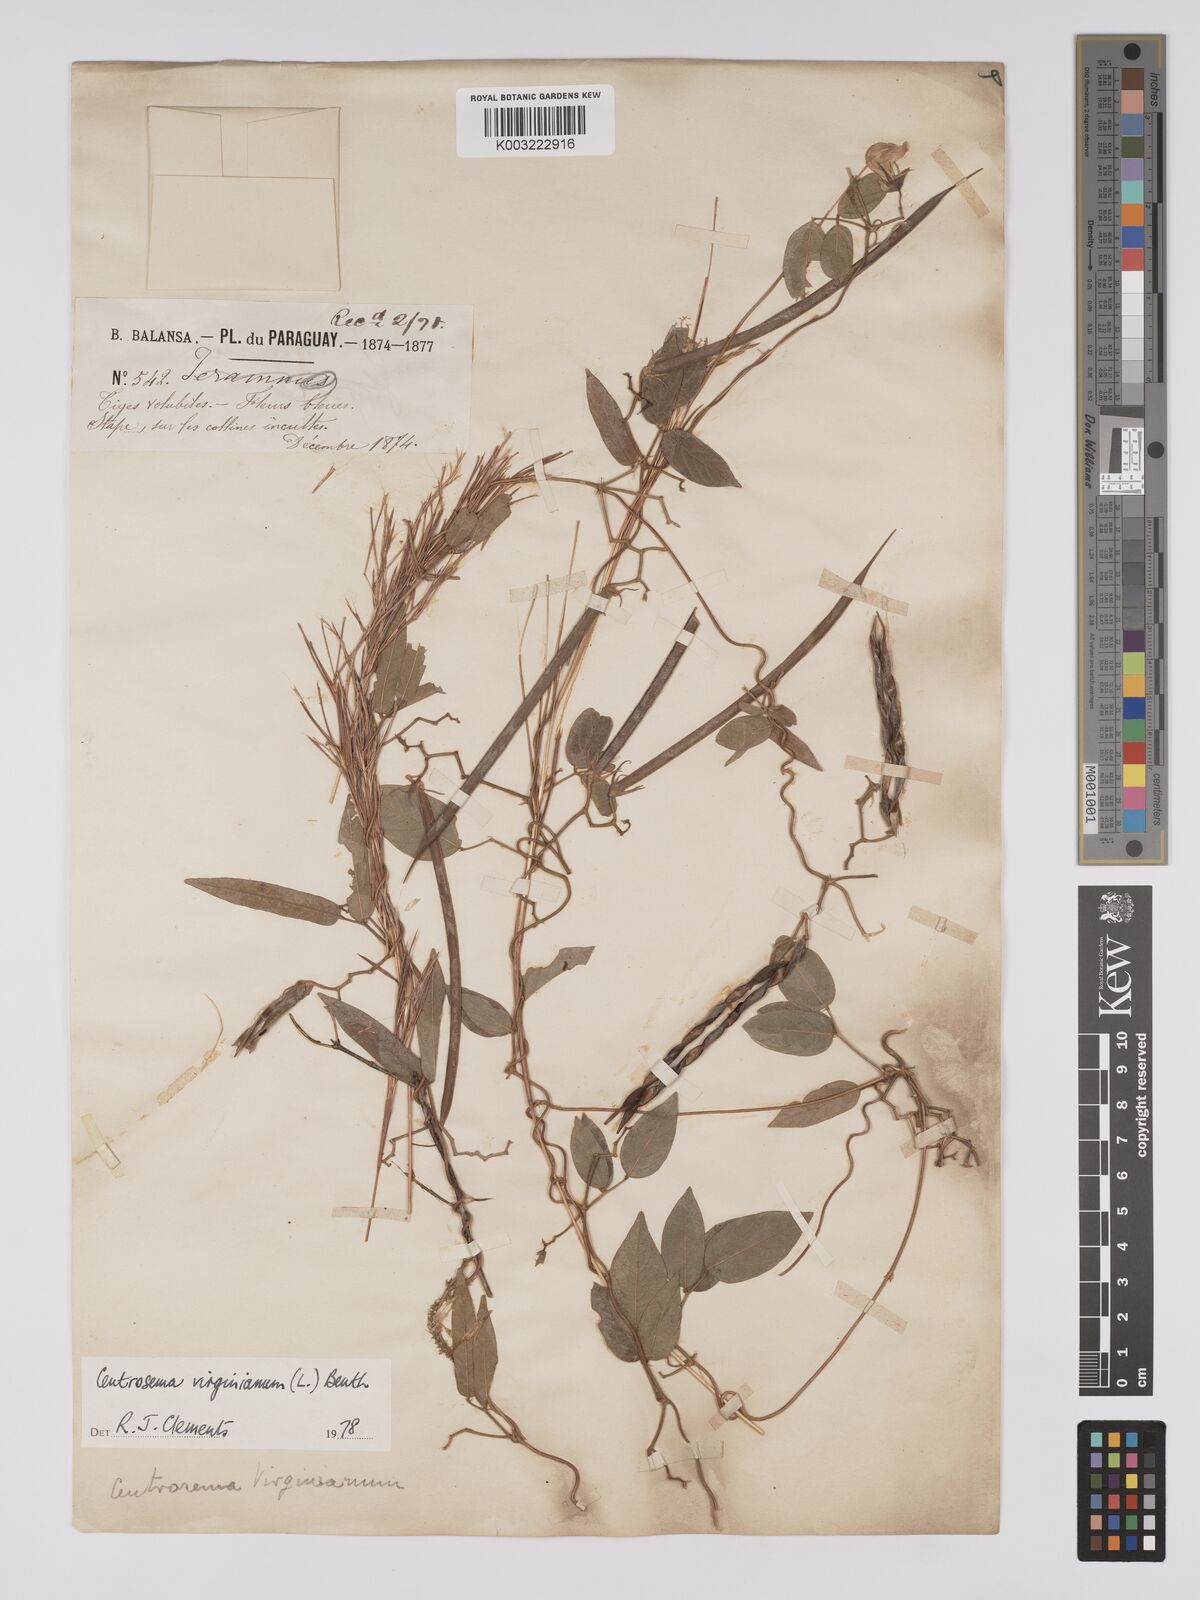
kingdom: Plantae
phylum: Tracheophyta
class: Magnoliopsida
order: Fabales
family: Fabaceae
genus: Centrosema
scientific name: Centrosema virginianum
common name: Butterfly-pea
